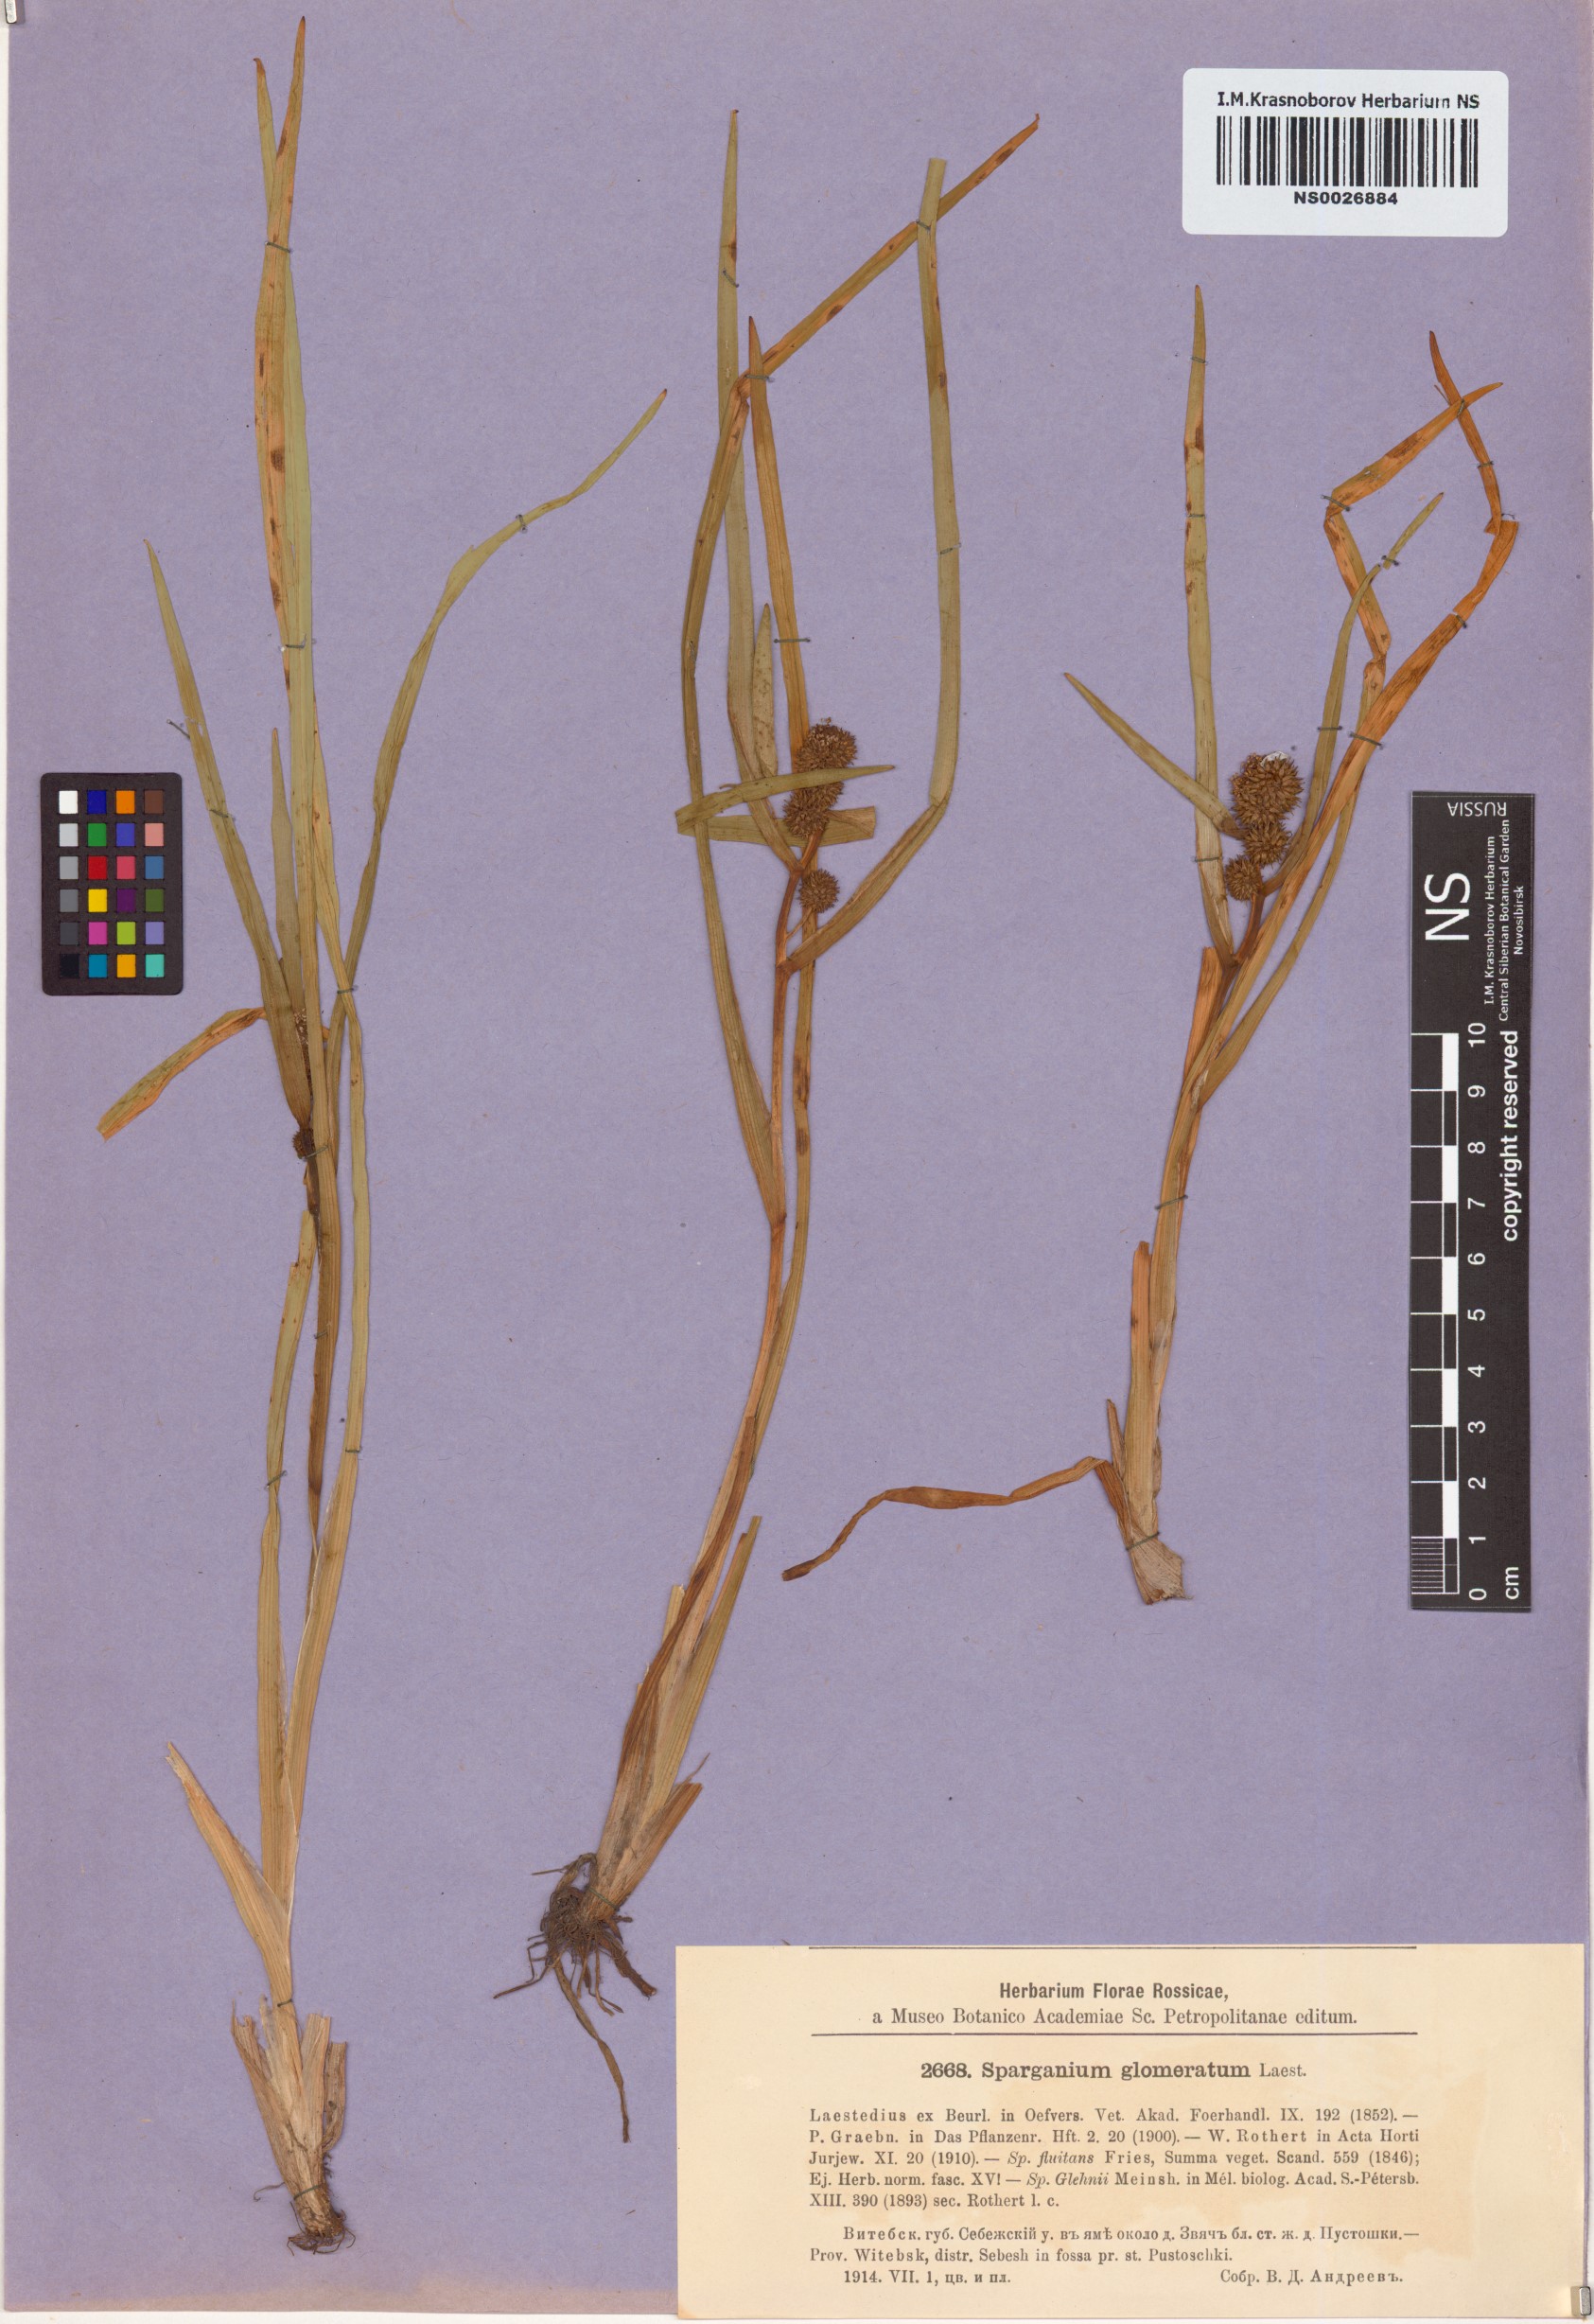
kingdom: Plantae
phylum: Tracheophyta
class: Liliopsida
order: Poales
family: Typhaceae
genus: Sparganium
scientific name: Sparganium glomeratum
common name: Clustered burreed
